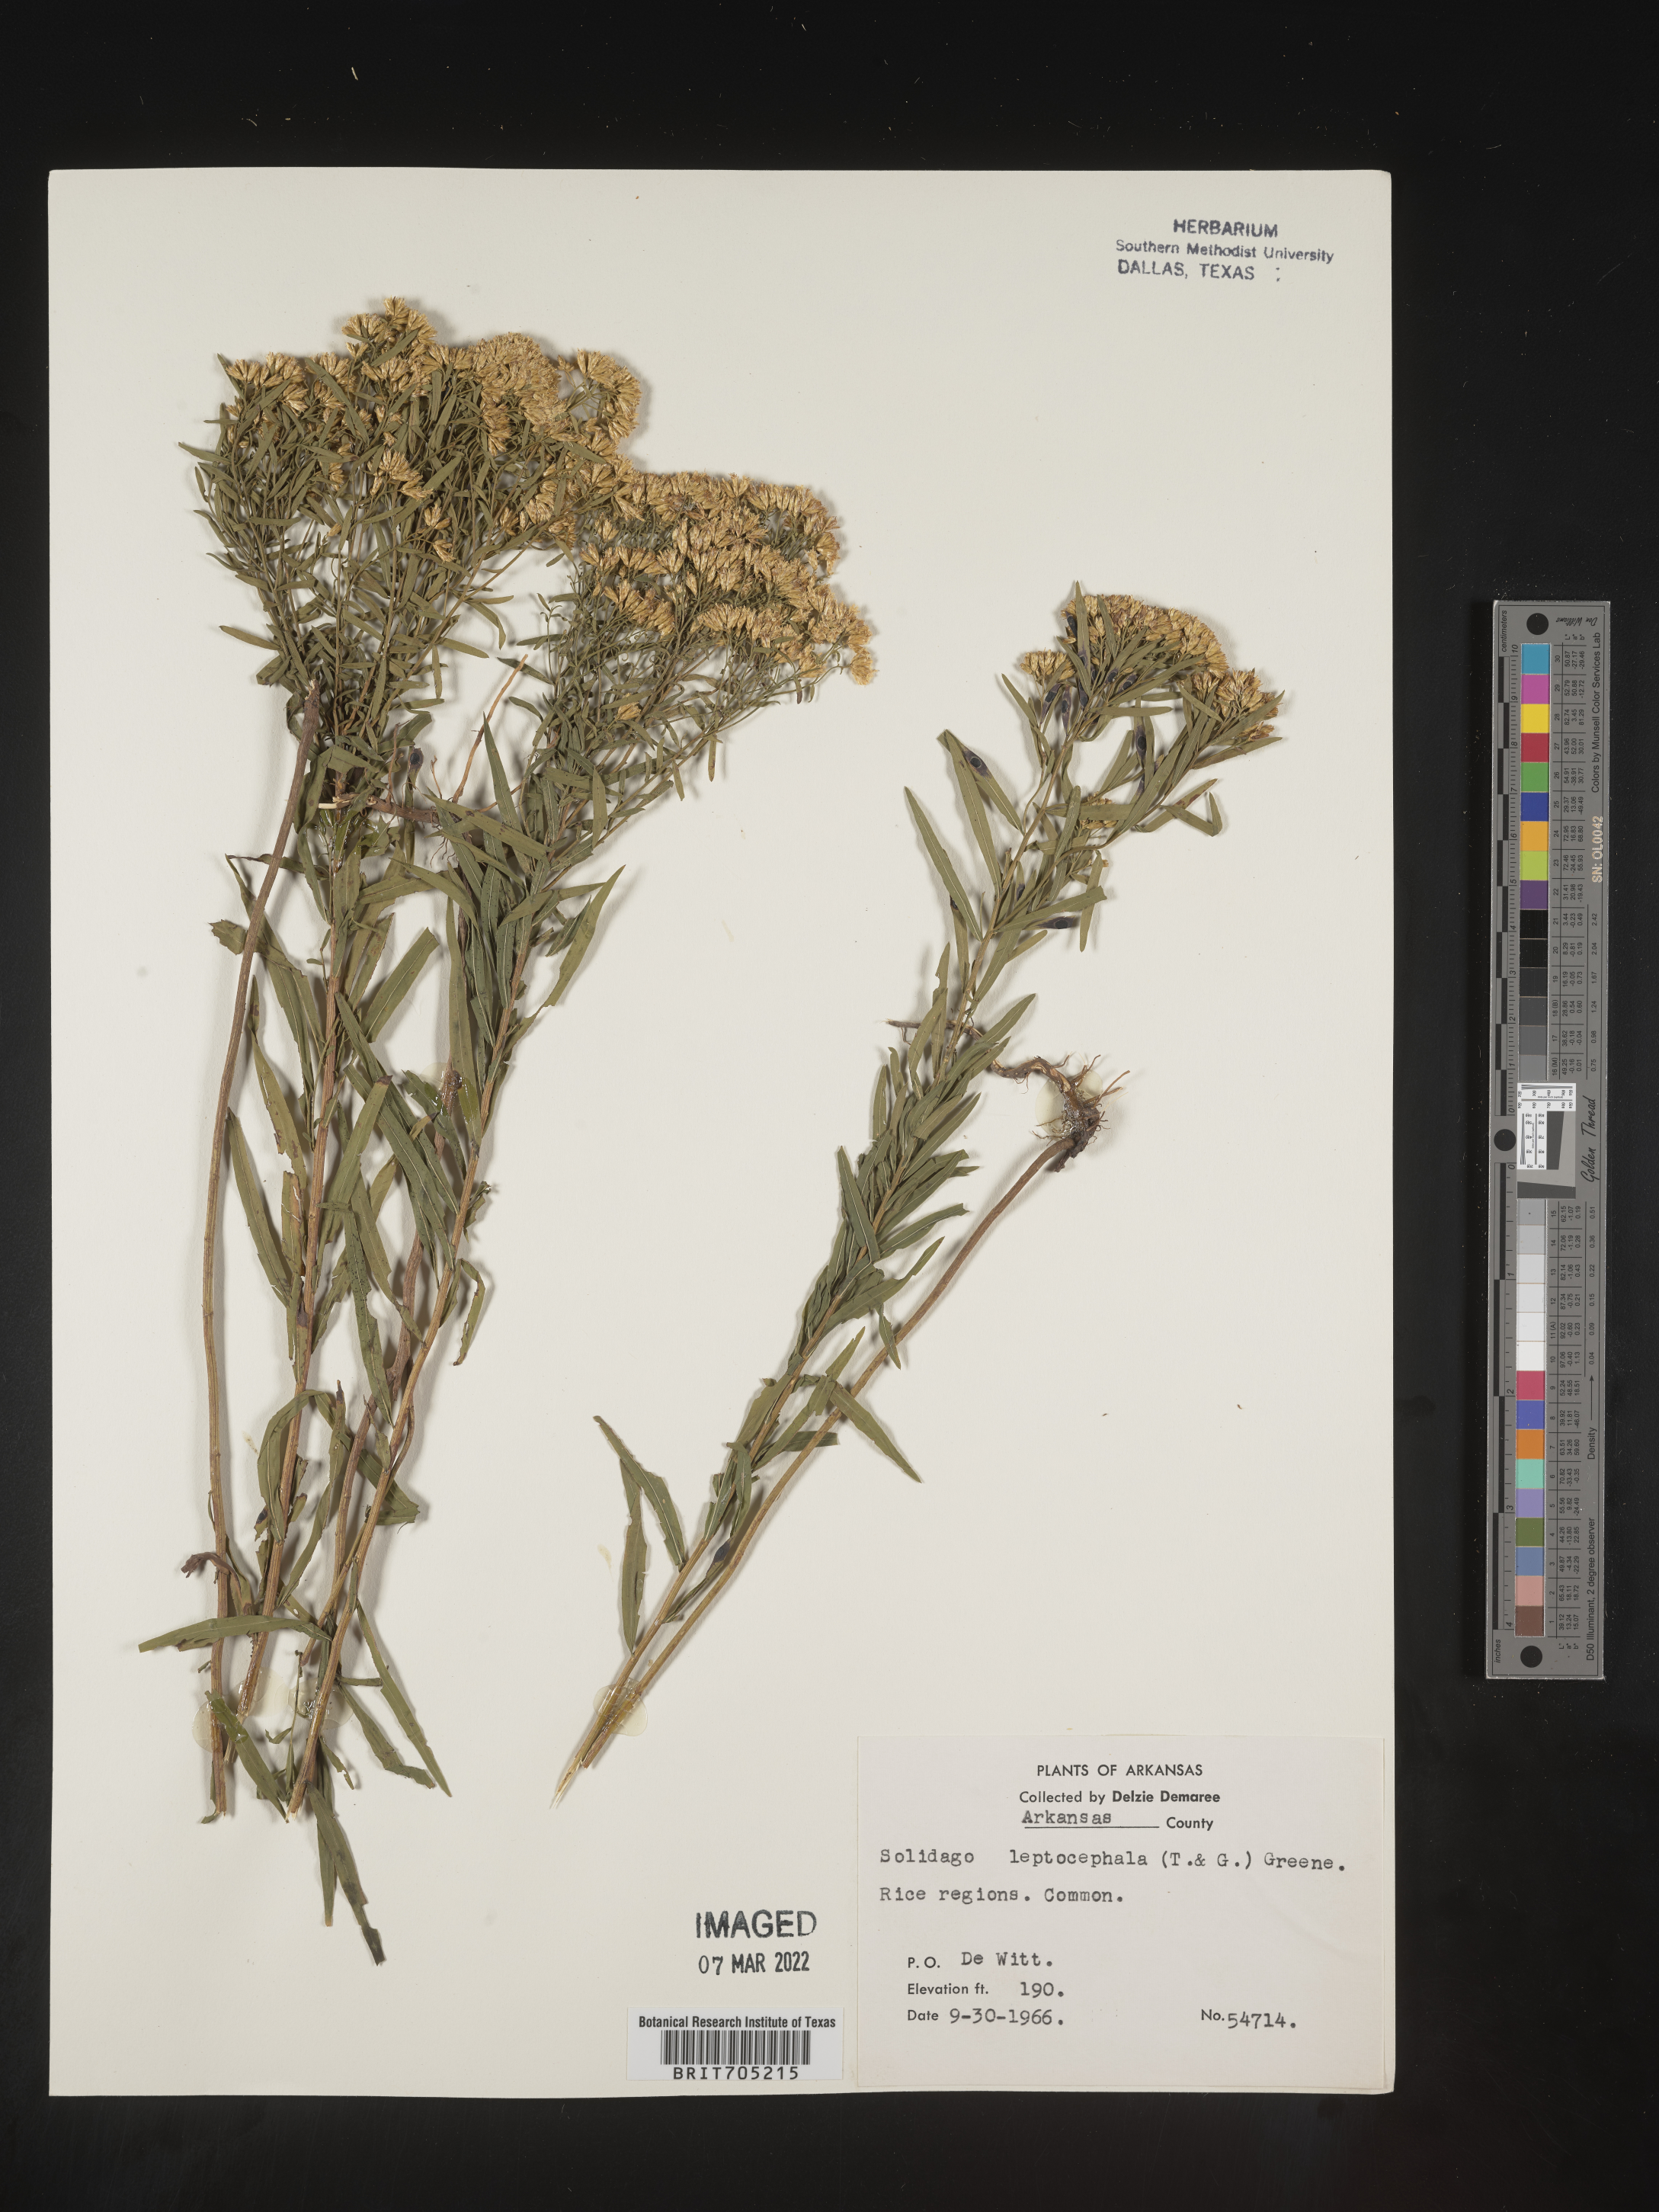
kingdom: Plantae
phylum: Tracheophyta
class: Magnoliopsida
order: Asterales
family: Asteraceae
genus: Euthamia
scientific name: Euthamia leptocephala
